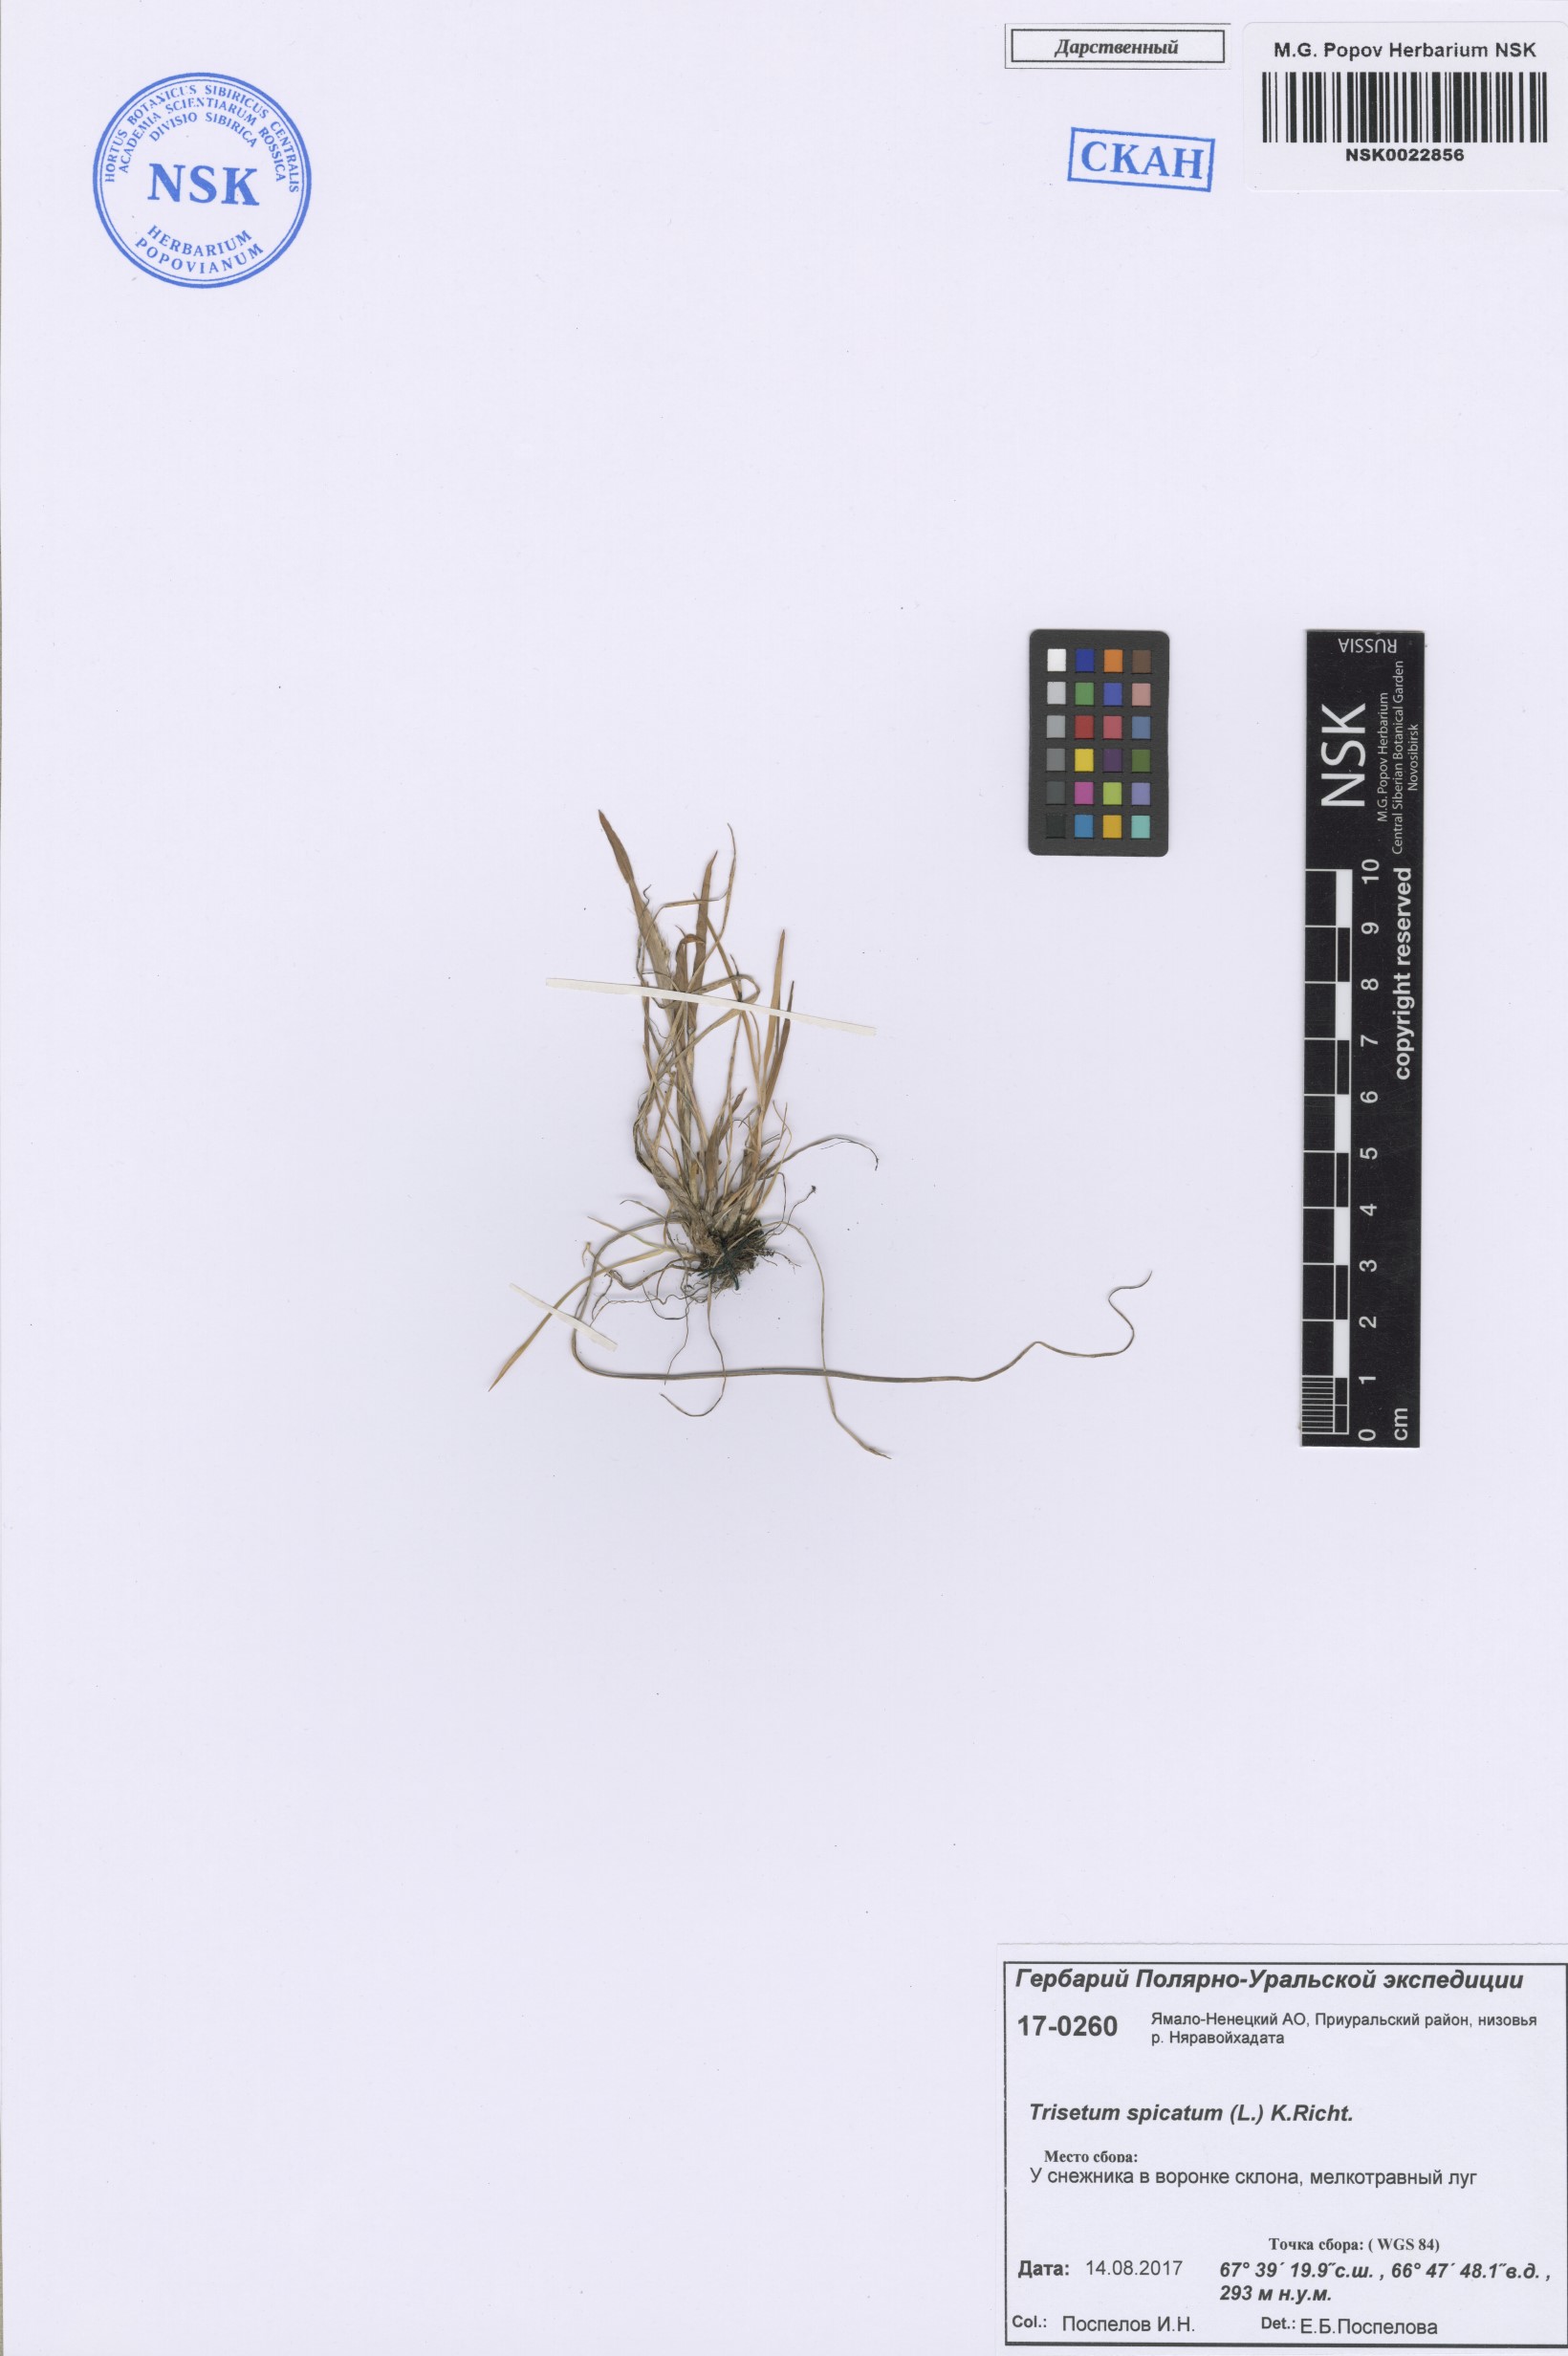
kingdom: Plantae
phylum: Tracheophyta
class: Liliopsida
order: Poales
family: Poaceae
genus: Koeleria
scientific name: Koeleria spicata
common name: Mountain trisetum
